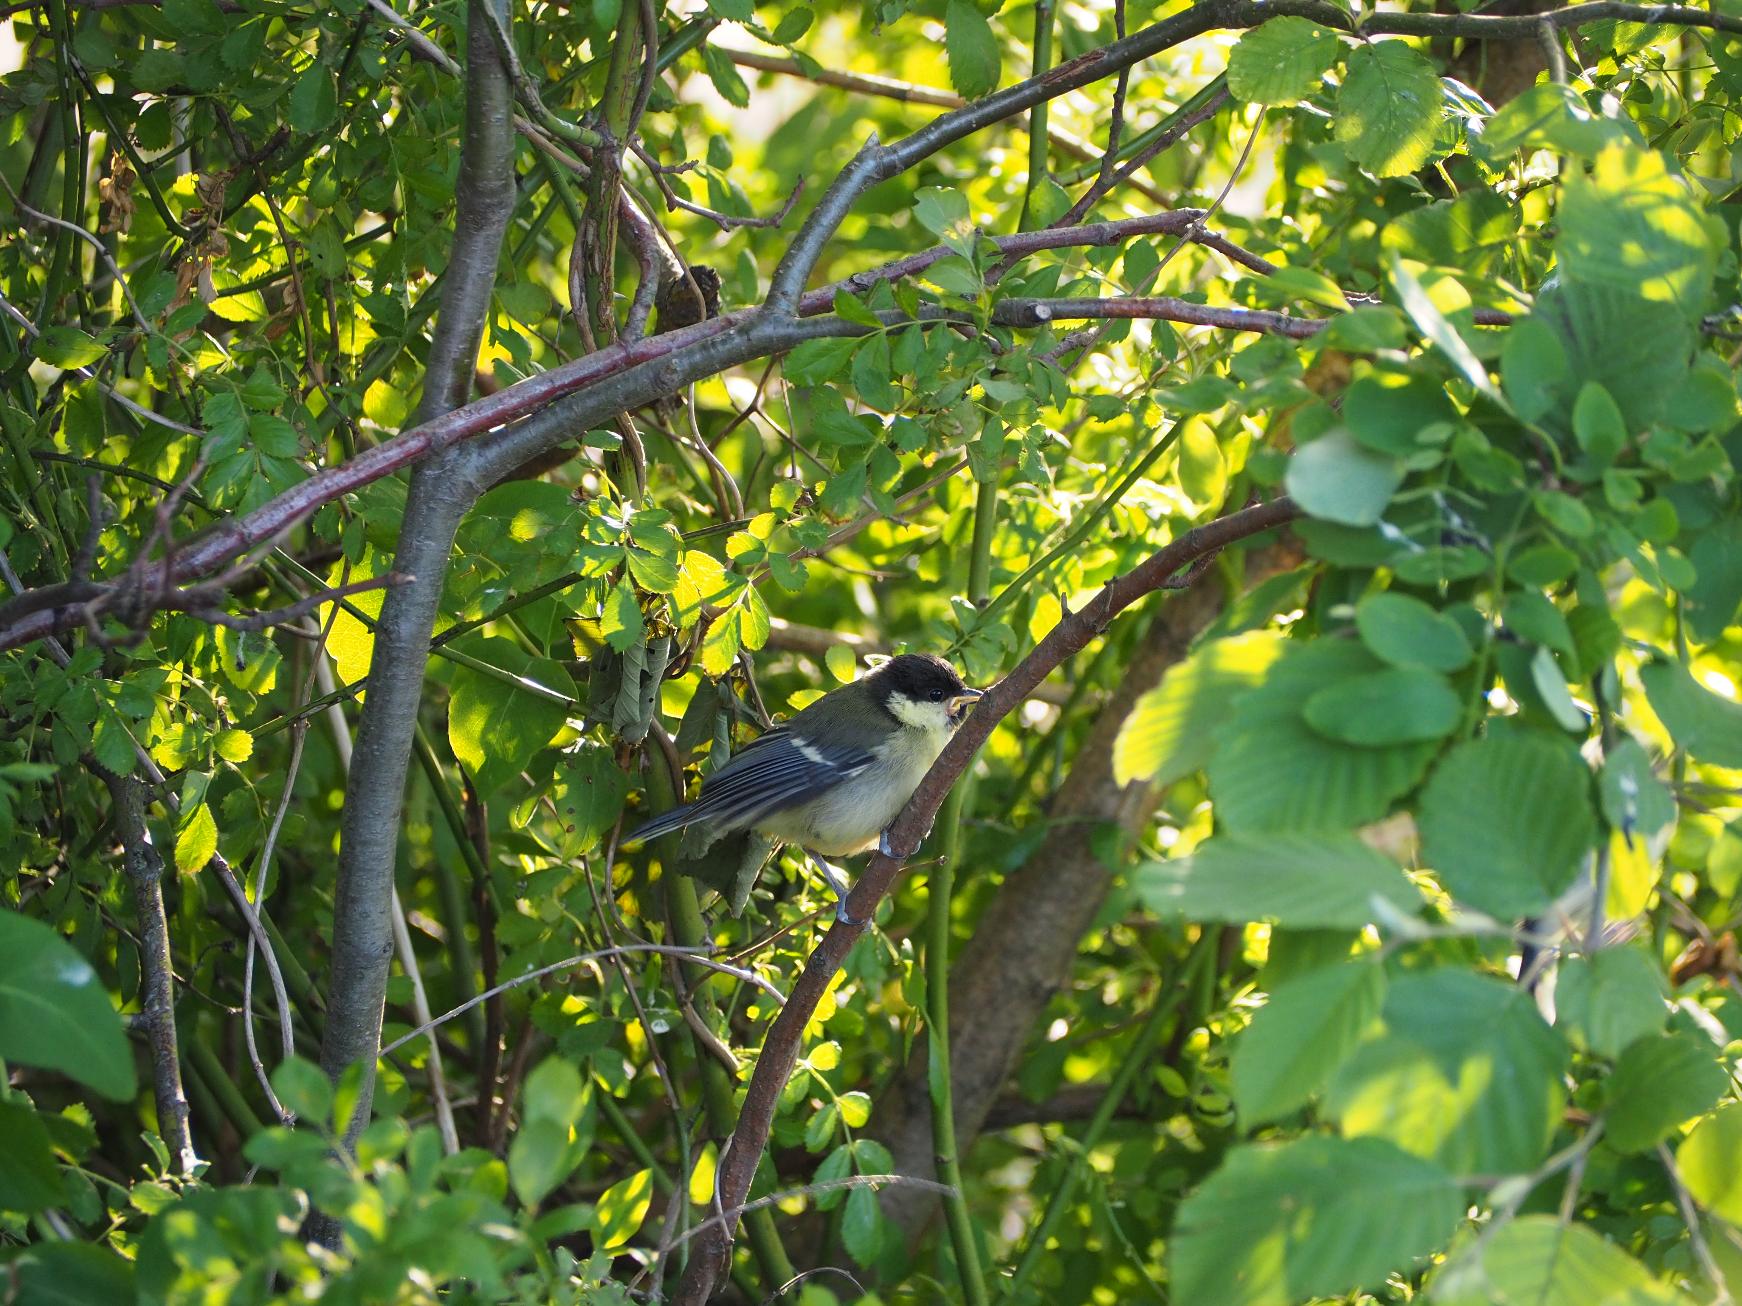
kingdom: Animalia
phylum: Chordata
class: Aves
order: Passeriformes
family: Paridae
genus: Parus
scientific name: Parus major
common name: Musvit
